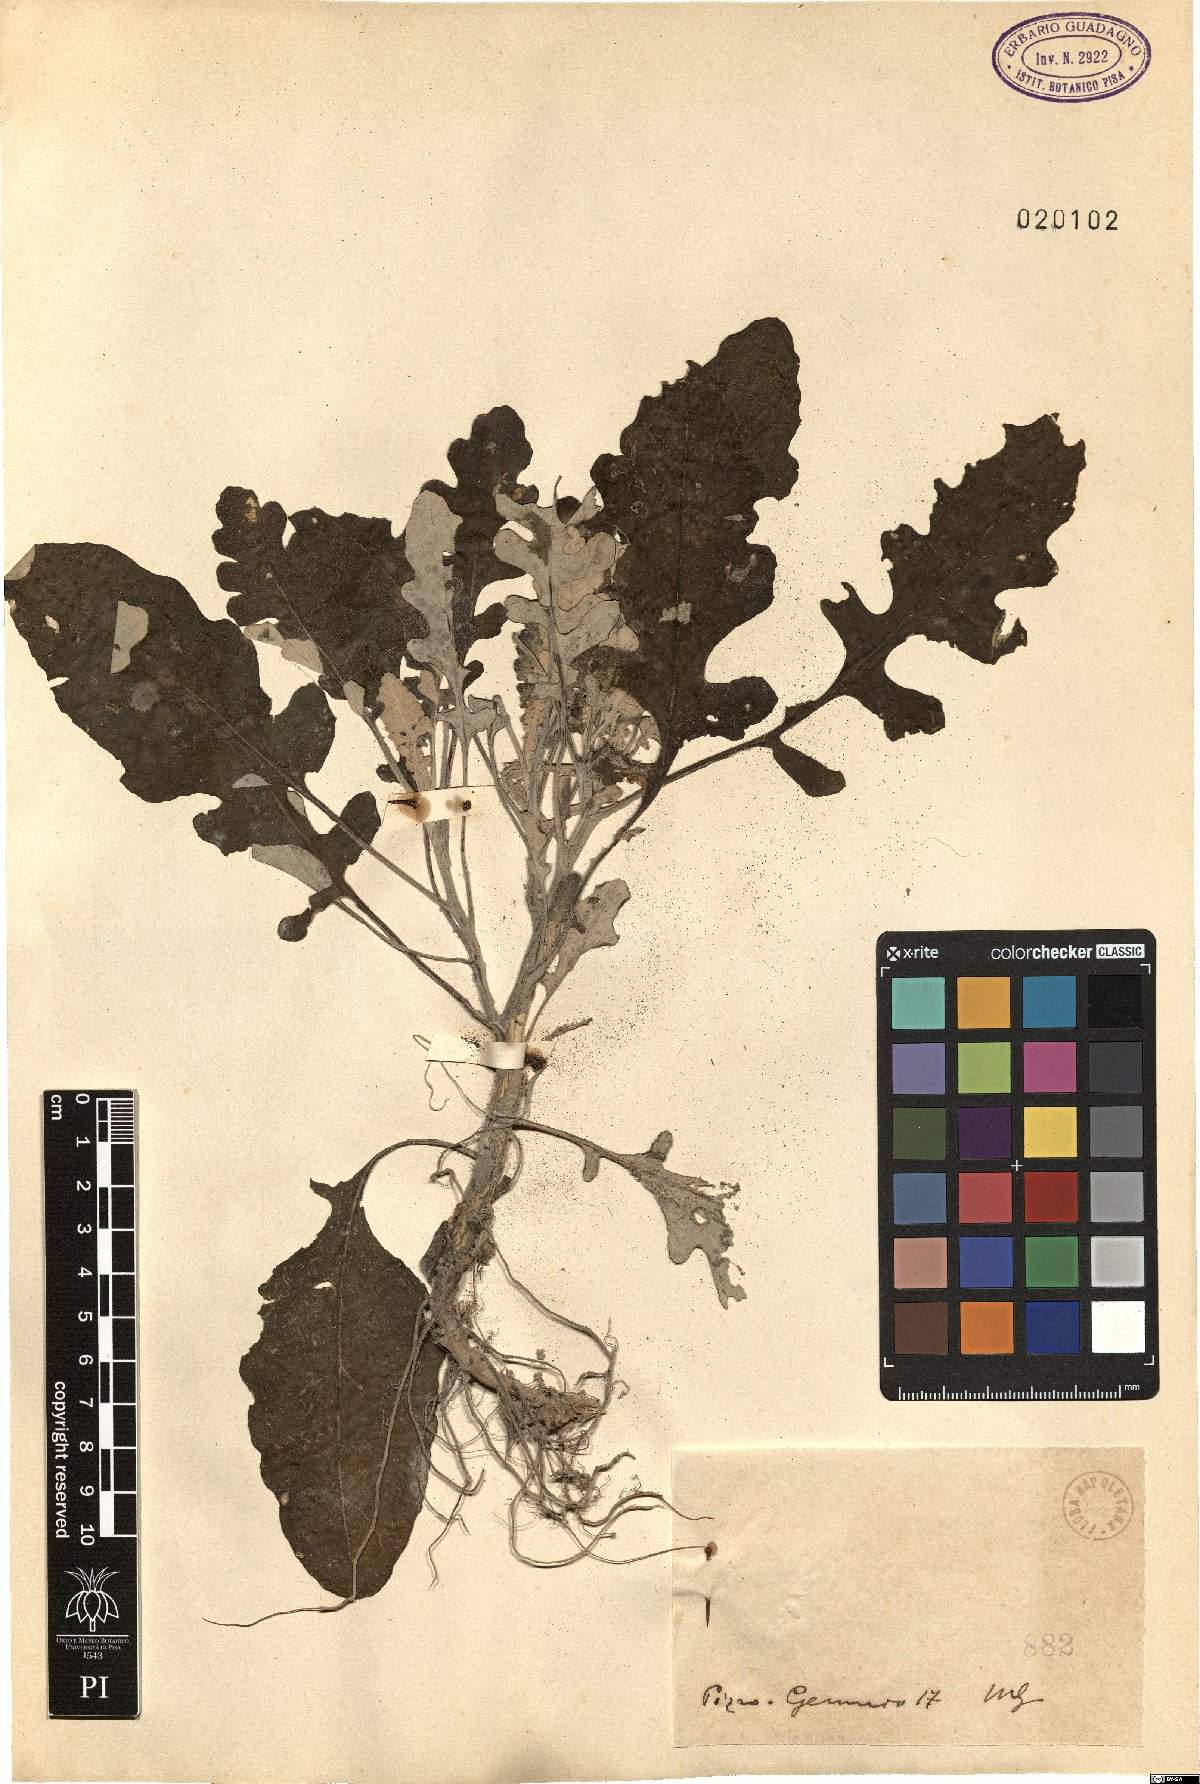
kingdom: Plantae
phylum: Tracheophyta
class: Magnoliopsida
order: Asterales
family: Asteraceae
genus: Senecio
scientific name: Senecio
